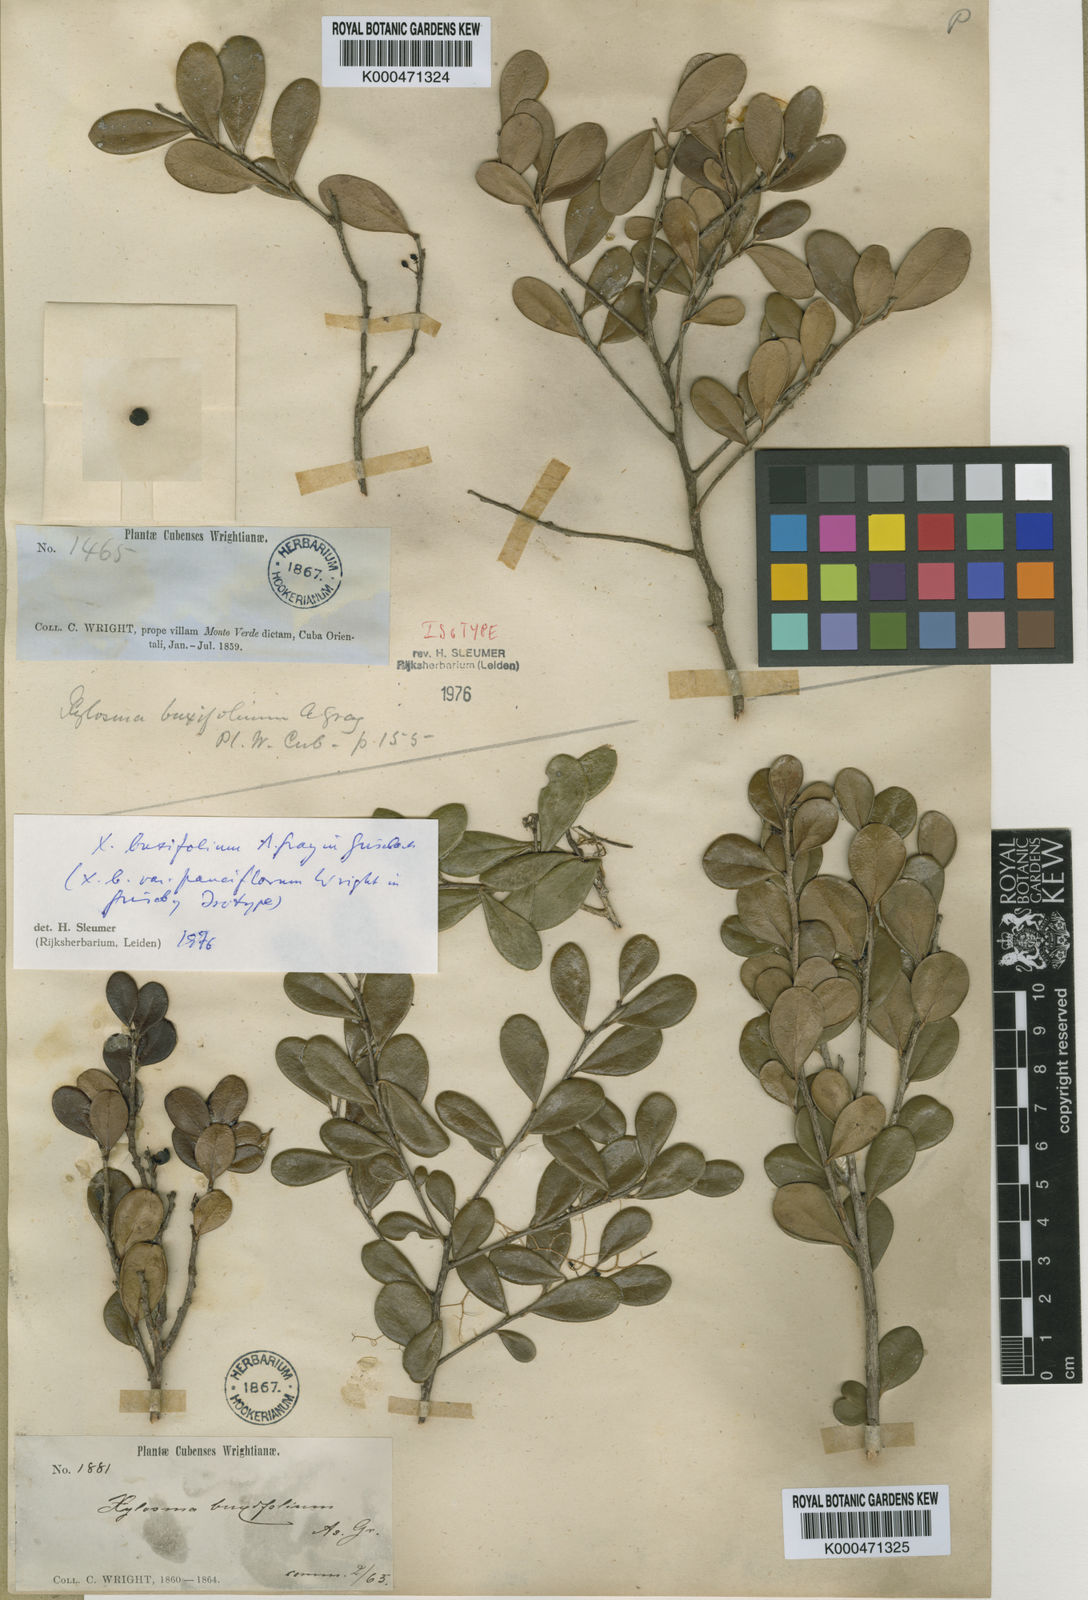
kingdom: Plantae
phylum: Tracheophyta
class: Magnoliopsida
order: Malpighiales
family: Salicaceae
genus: Xylosma
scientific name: Xylosma buxifolia
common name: Cockspur
